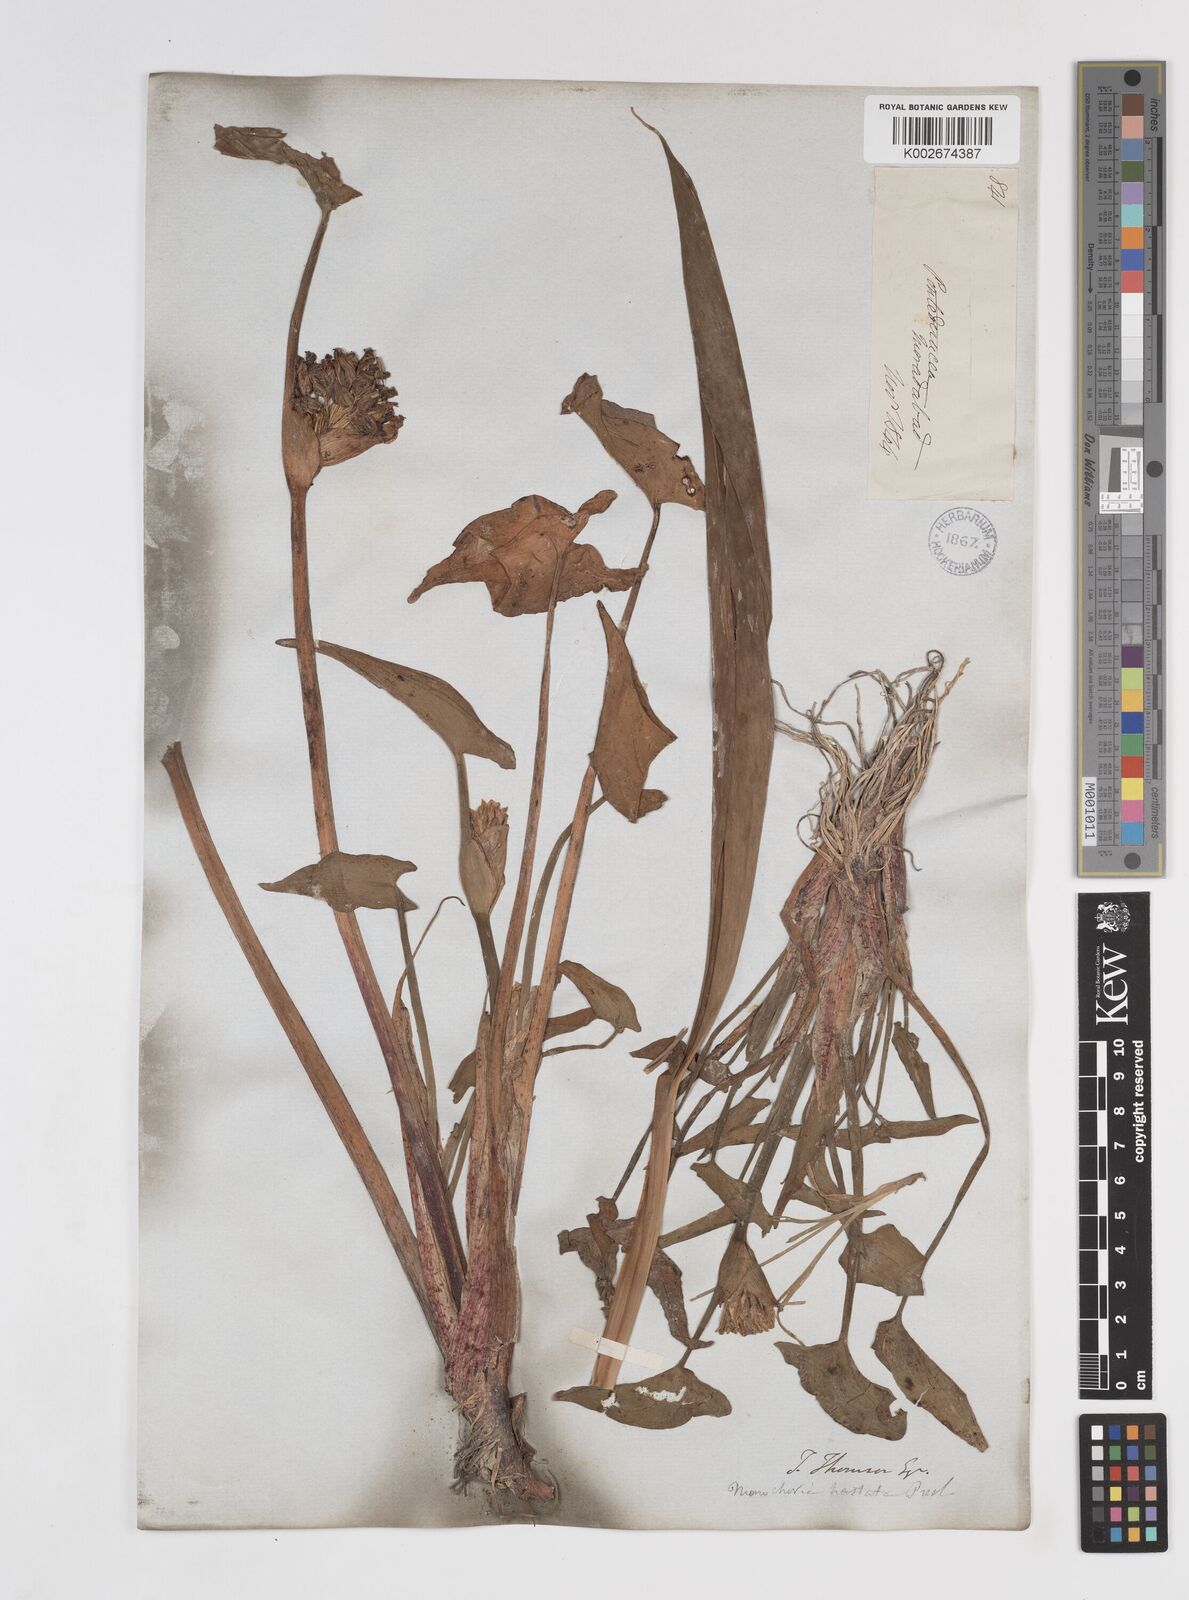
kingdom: Plantae
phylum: Tracheophyta
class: Liliopsida
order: Commelinales
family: Pontederiaceae
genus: Pontederia
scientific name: Pontederia hastata
